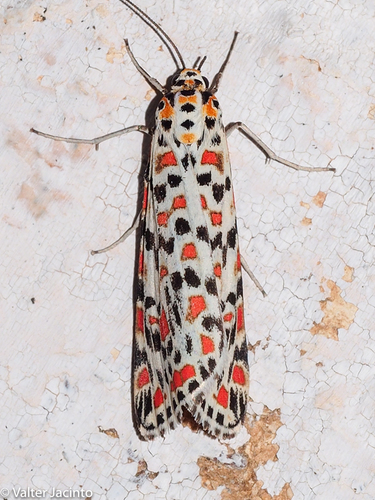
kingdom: Animalia
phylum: Arthropoda
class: Insecta
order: Lepidoptera
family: Erebidae
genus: Utetheisa
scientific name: Utetheisa pulchella
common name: Crimson speckled
